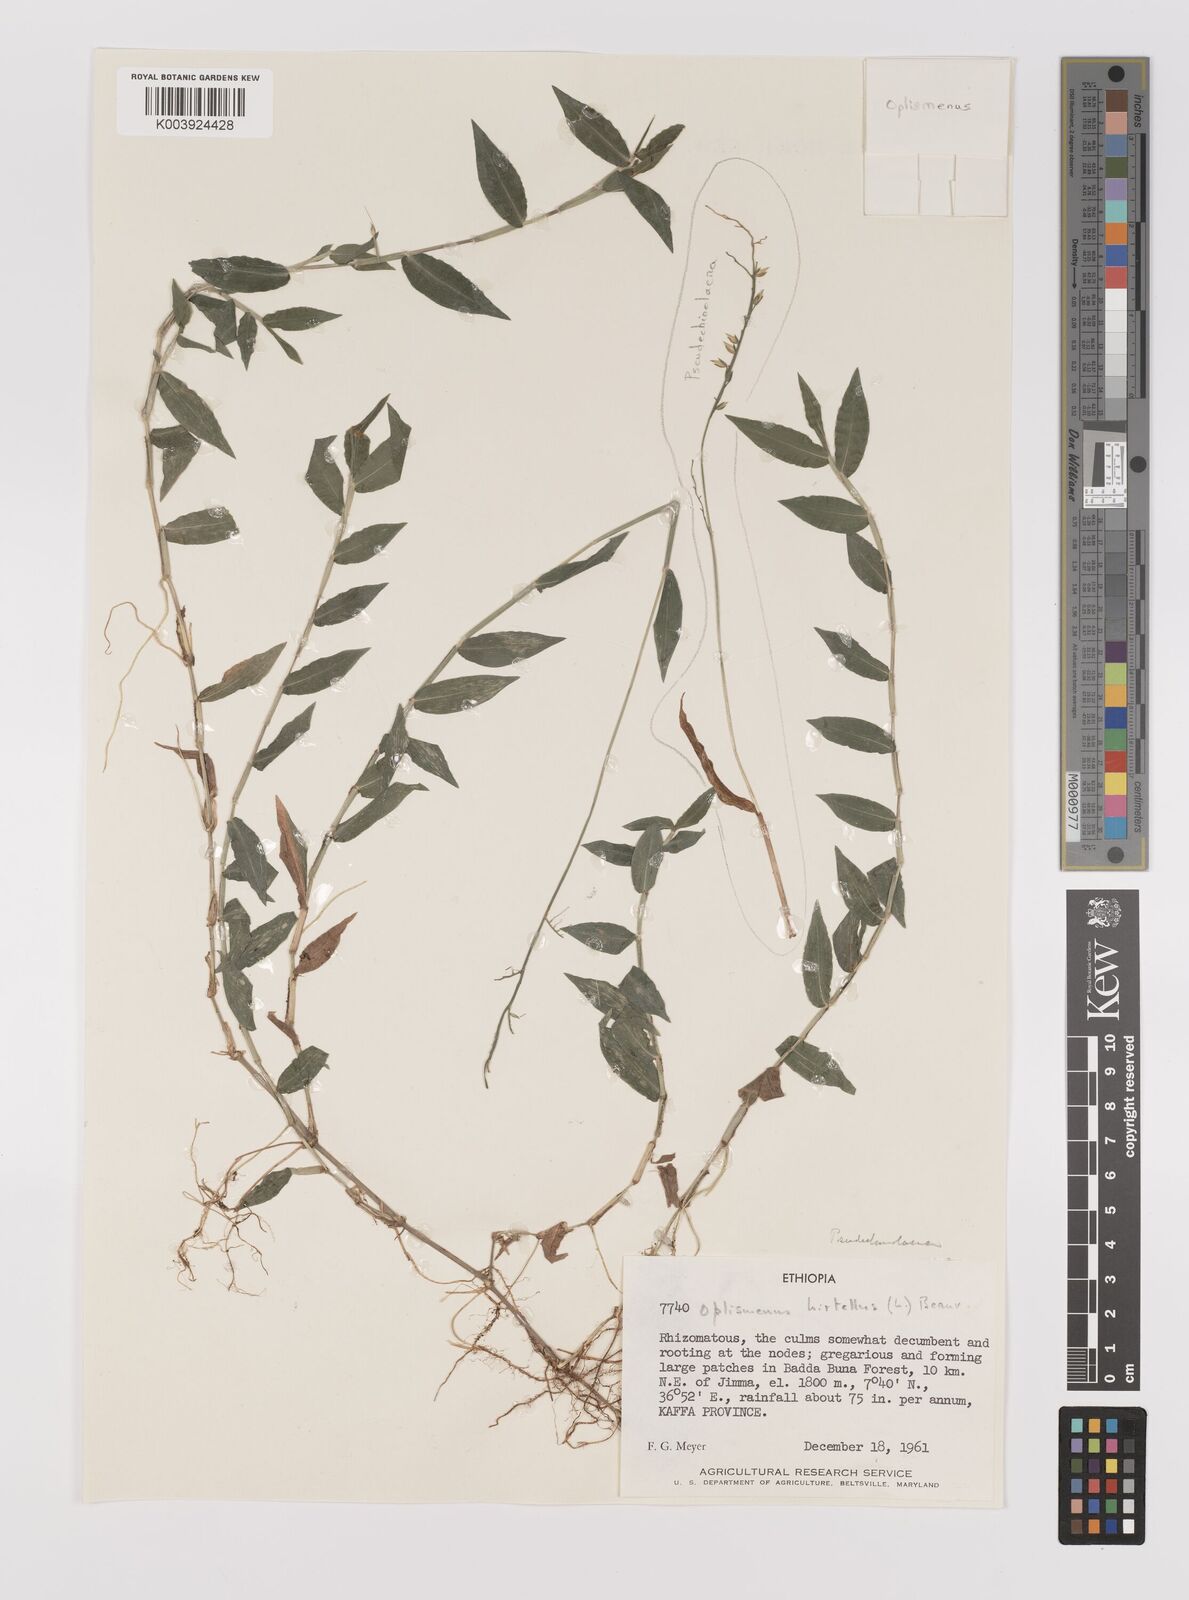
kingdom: Plantae
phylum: Tracheophyta
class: Liliopsida
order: Poales
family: Poaceae
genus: Oplismenus
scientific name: Oplismenus hirtellus
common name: Basketgrass
